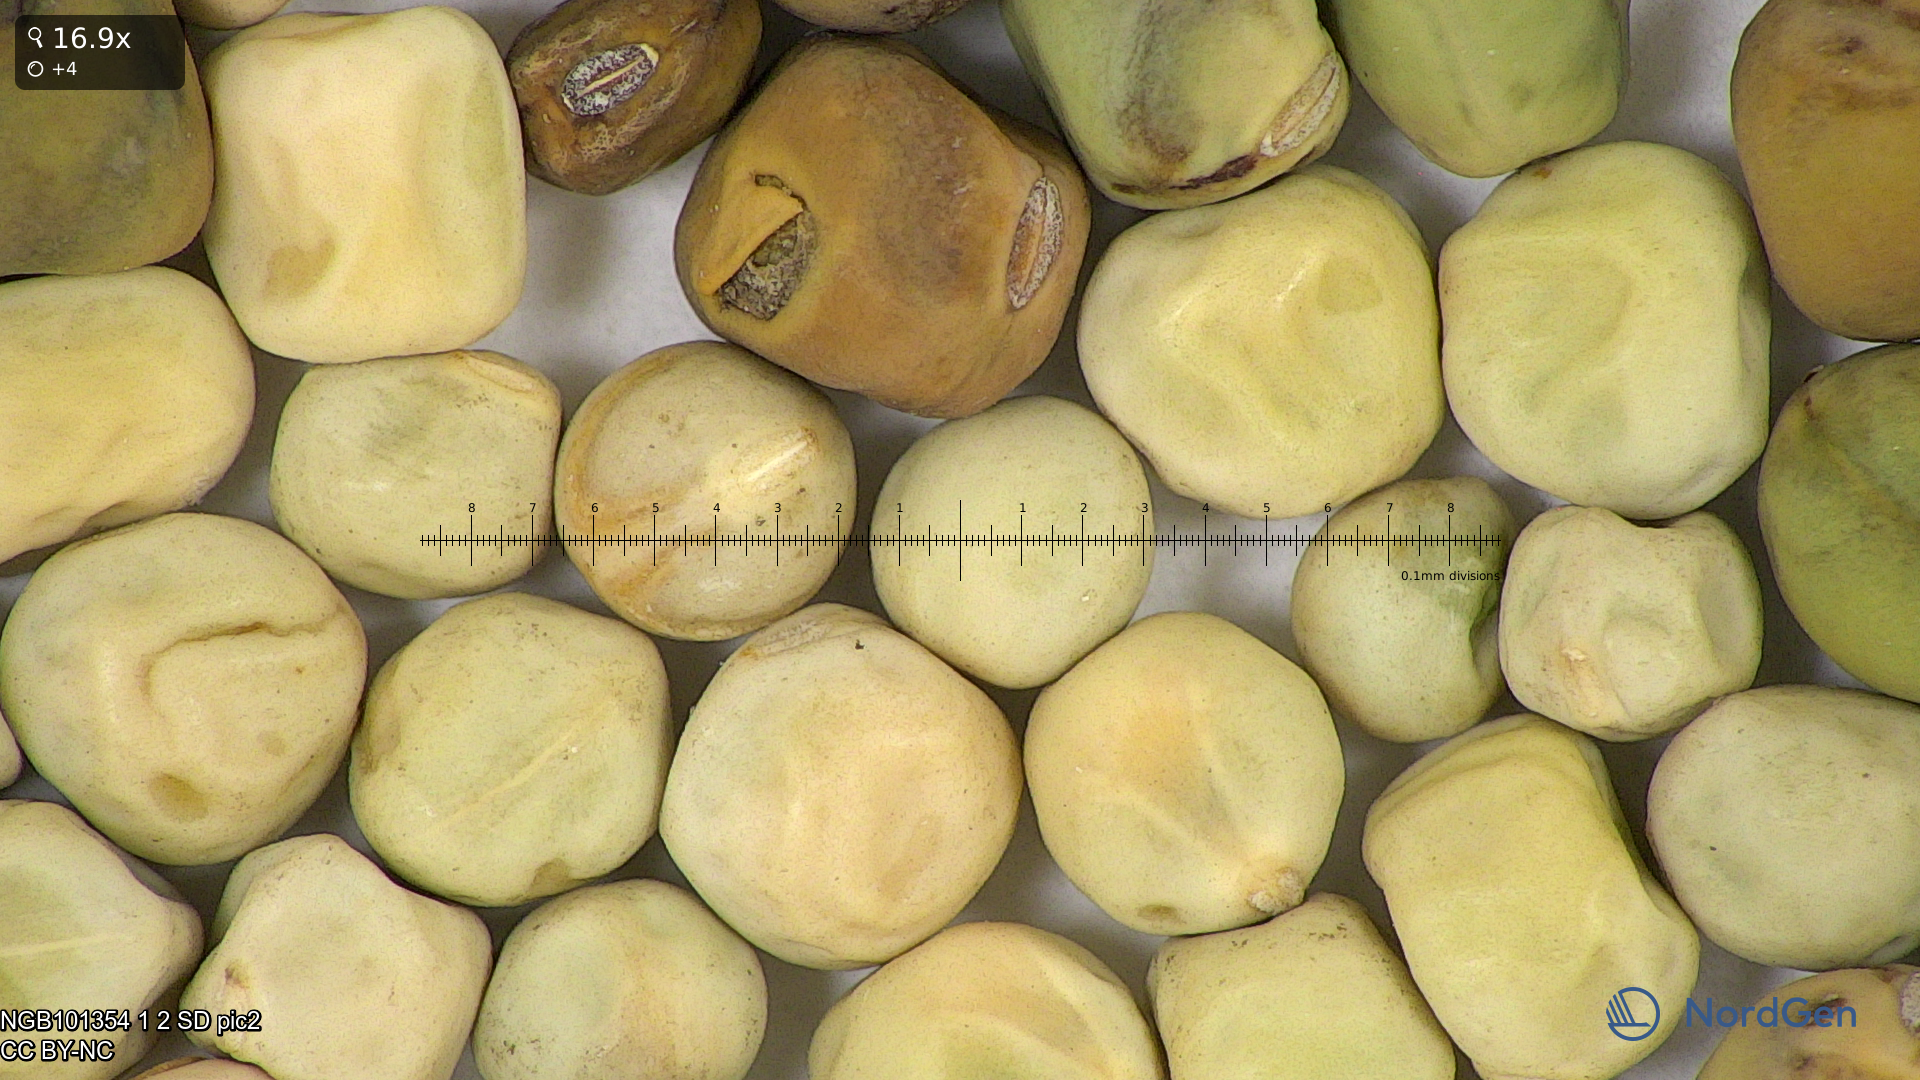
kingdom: Plantae
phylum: Tracheophyta
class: Magnoliopsida
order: Fabales
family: Fabaceae
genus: Lathyrus
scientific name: Lathyrus oleraceus
